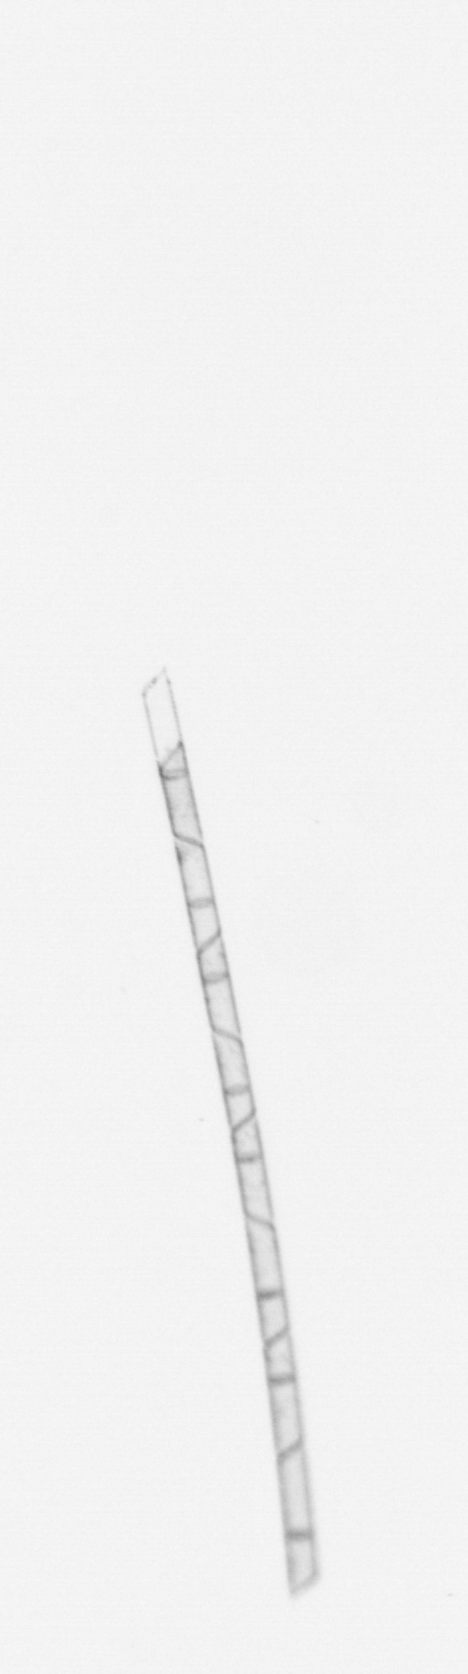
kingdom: Chromista
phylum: Ochrophyta
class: Bacillariophyceae
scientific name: Bacillariophyceae
